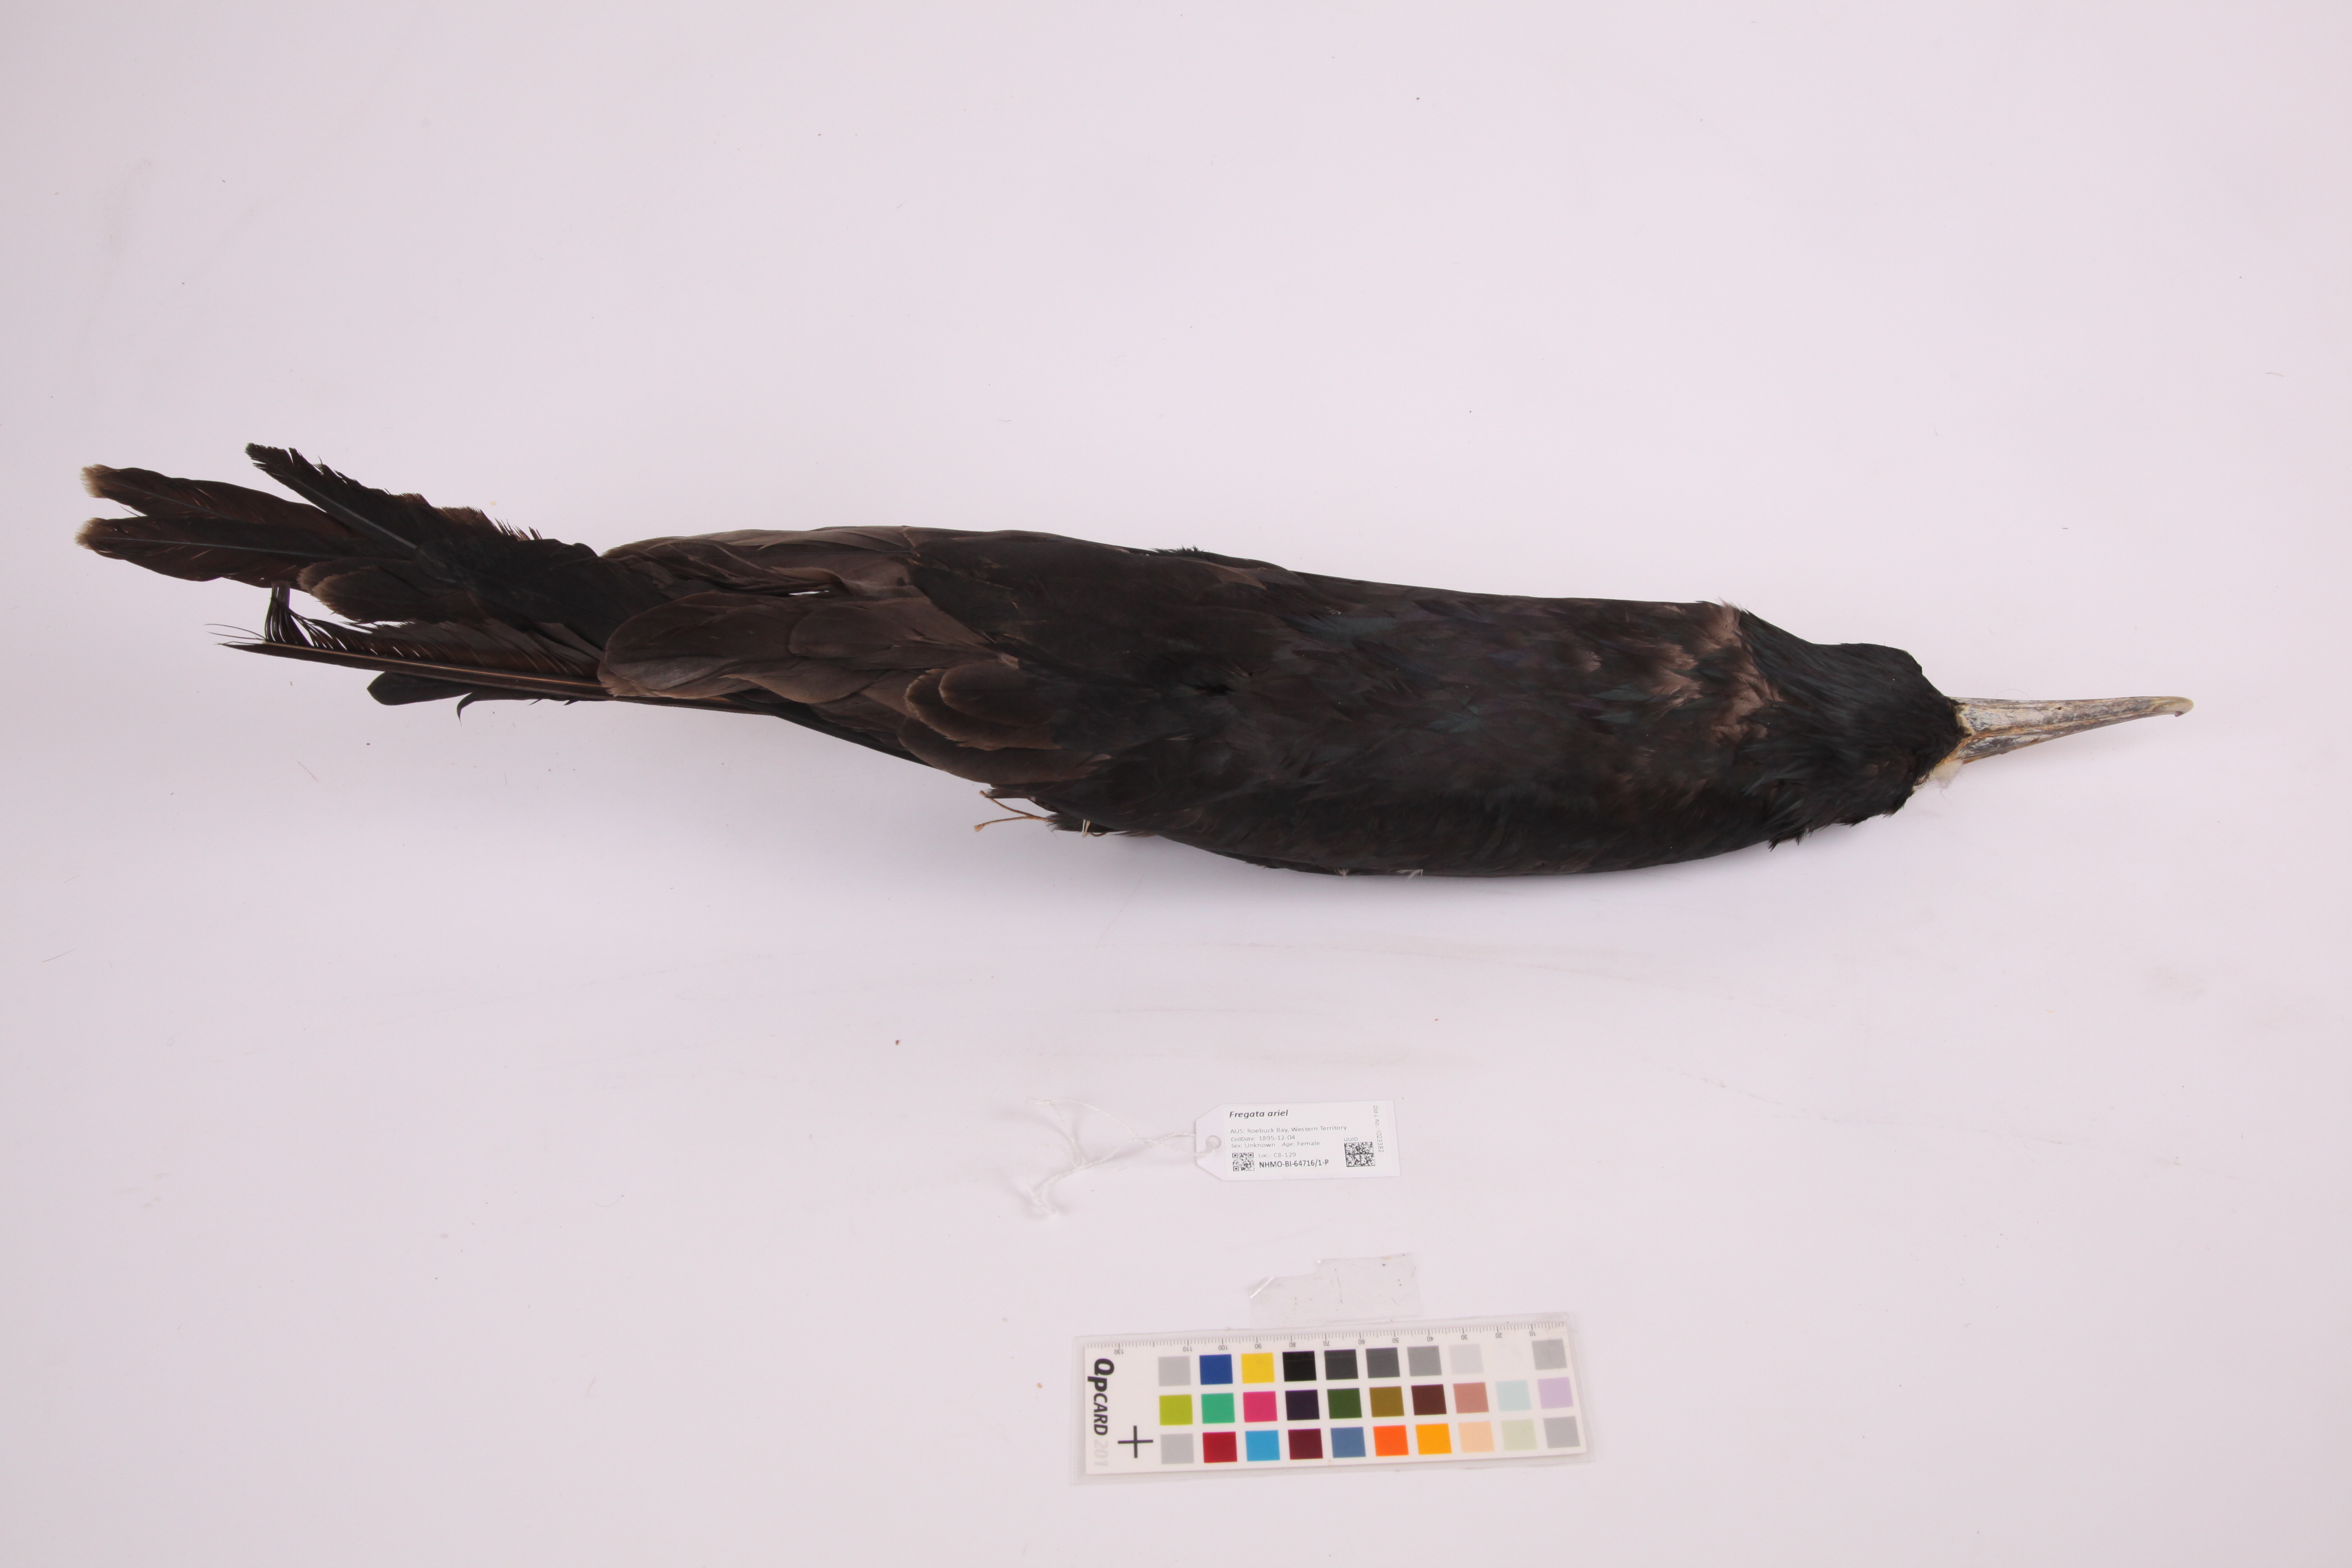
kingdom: Animalia
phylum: Chordata
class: Aves
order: Suliformes
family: Fregatidae
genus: Fregata
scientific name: Fregata ariel
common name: Lesser frigatebird
